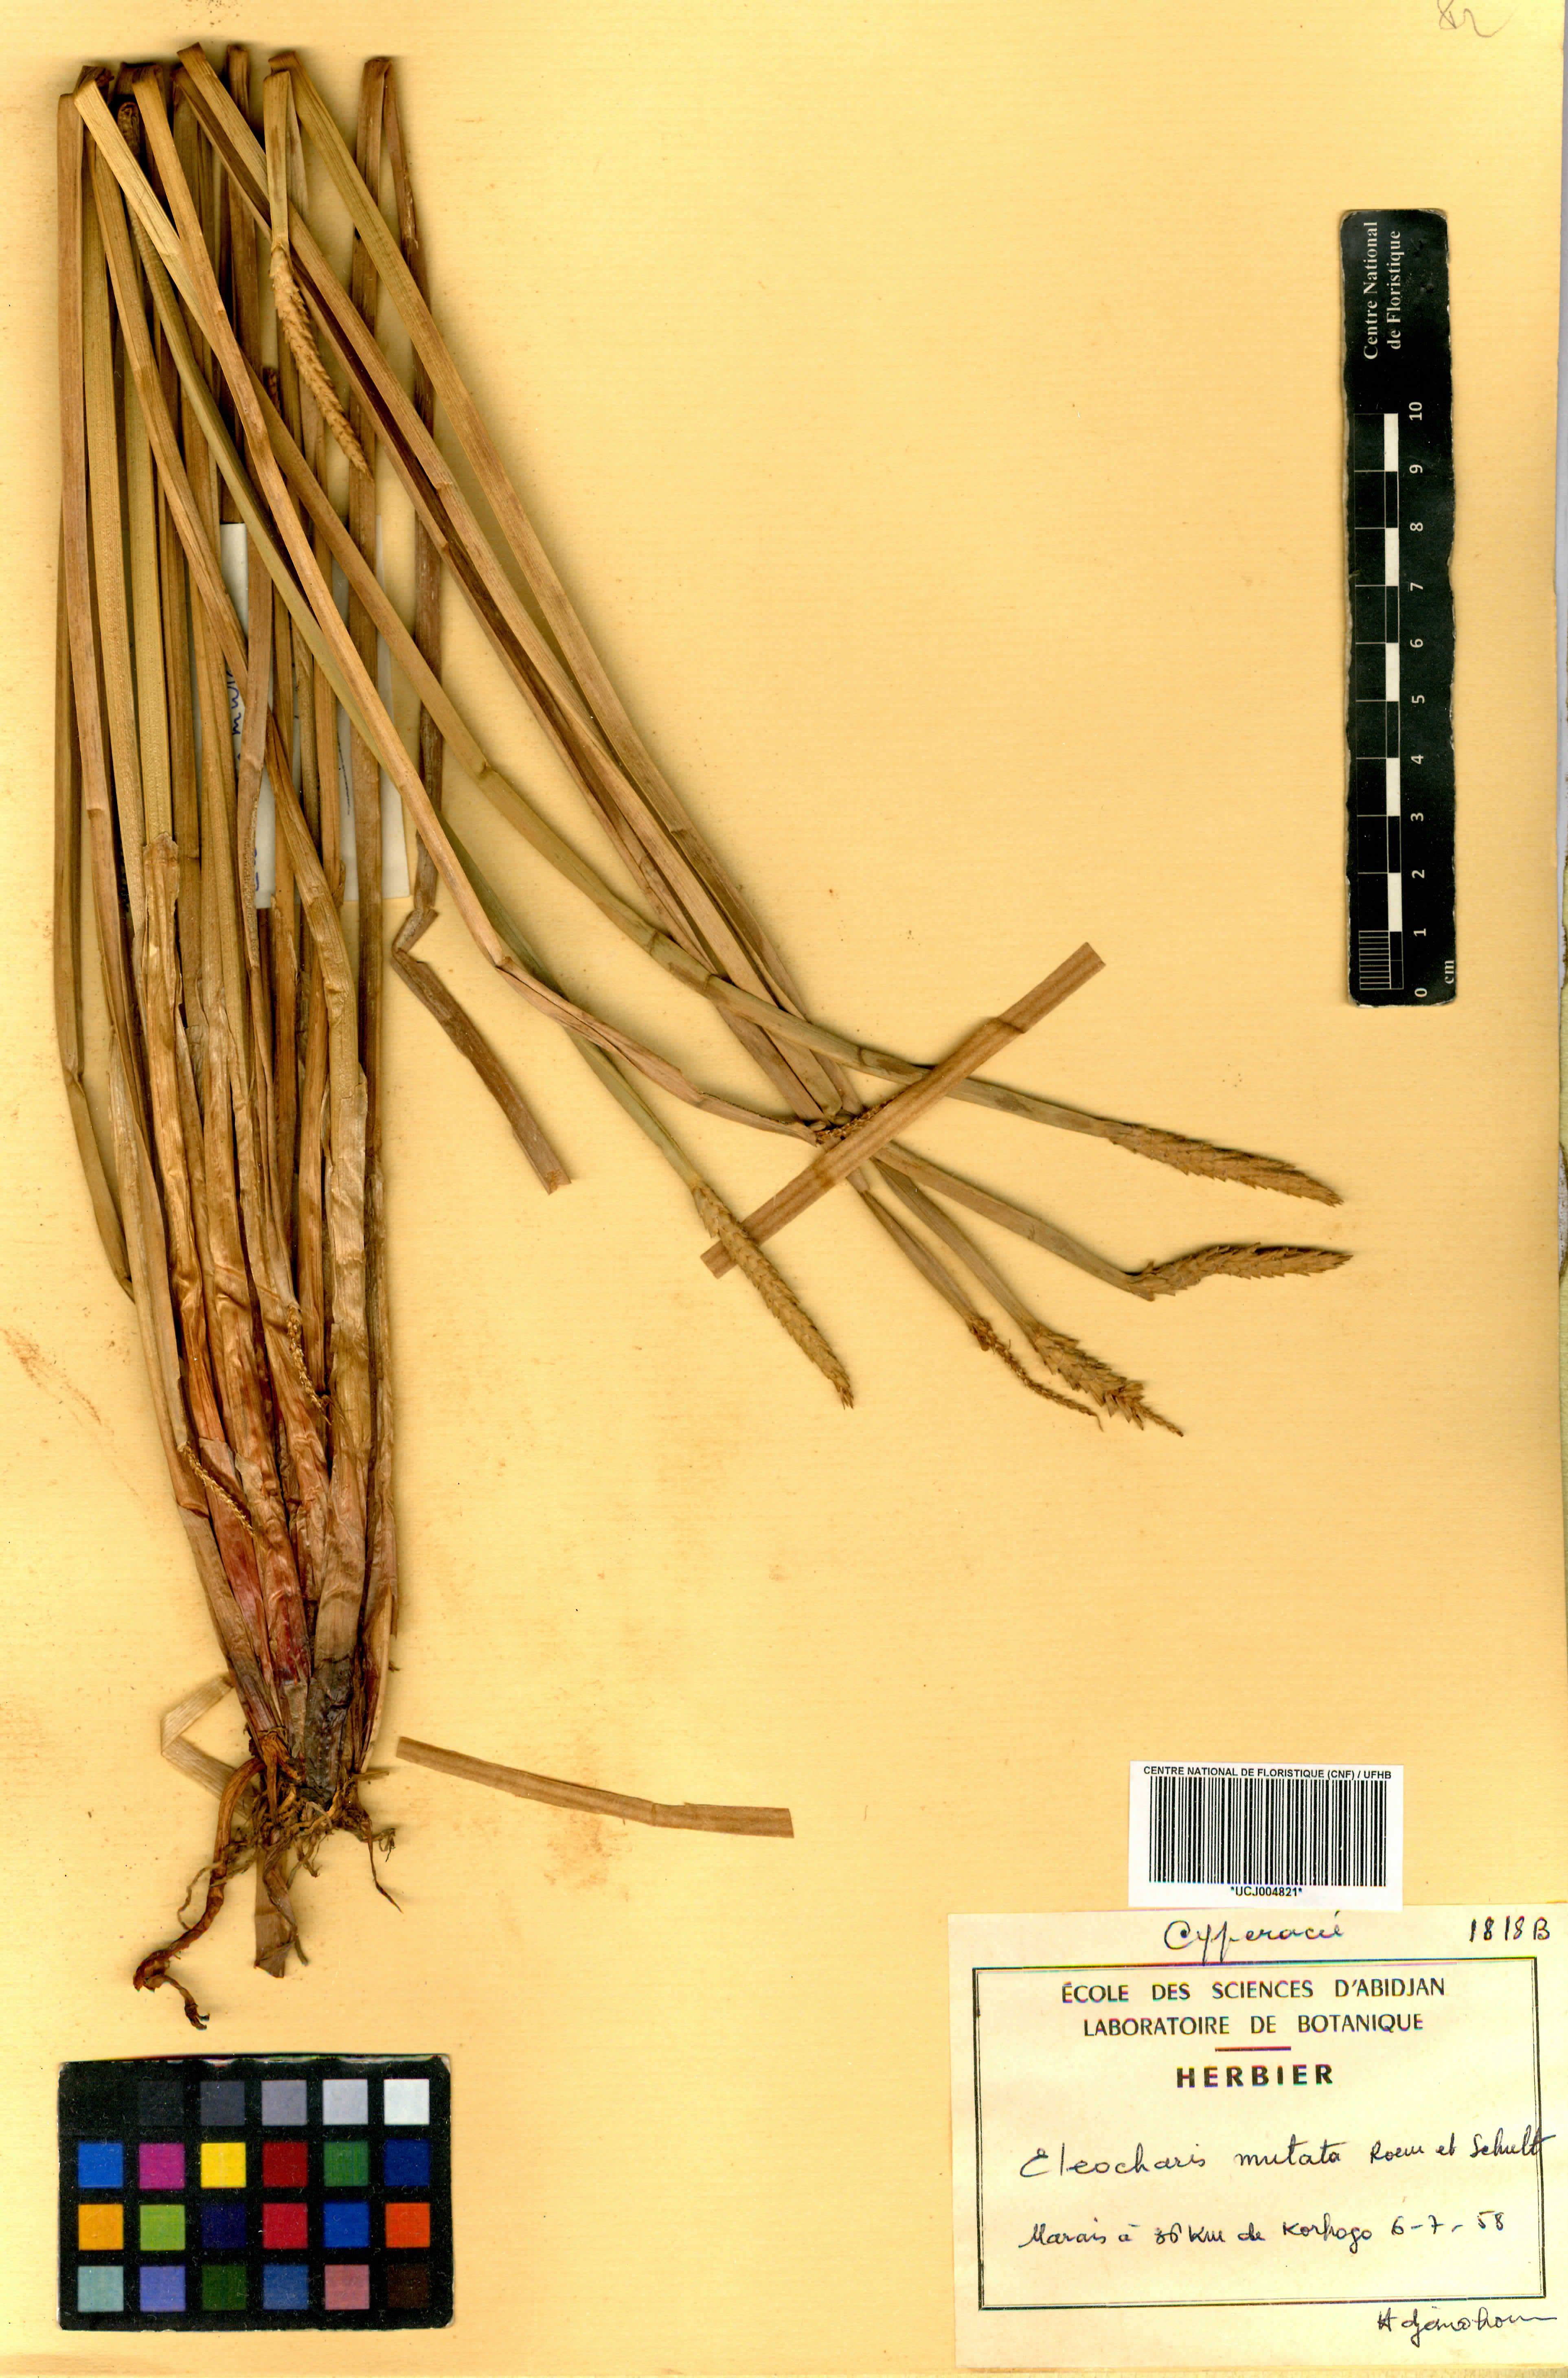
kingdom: Plantae
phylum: Tracheophyta
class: Liliopsida
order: Poales
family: Cyperaceae
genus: Eleocharis
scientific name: Eleocharis mutata
